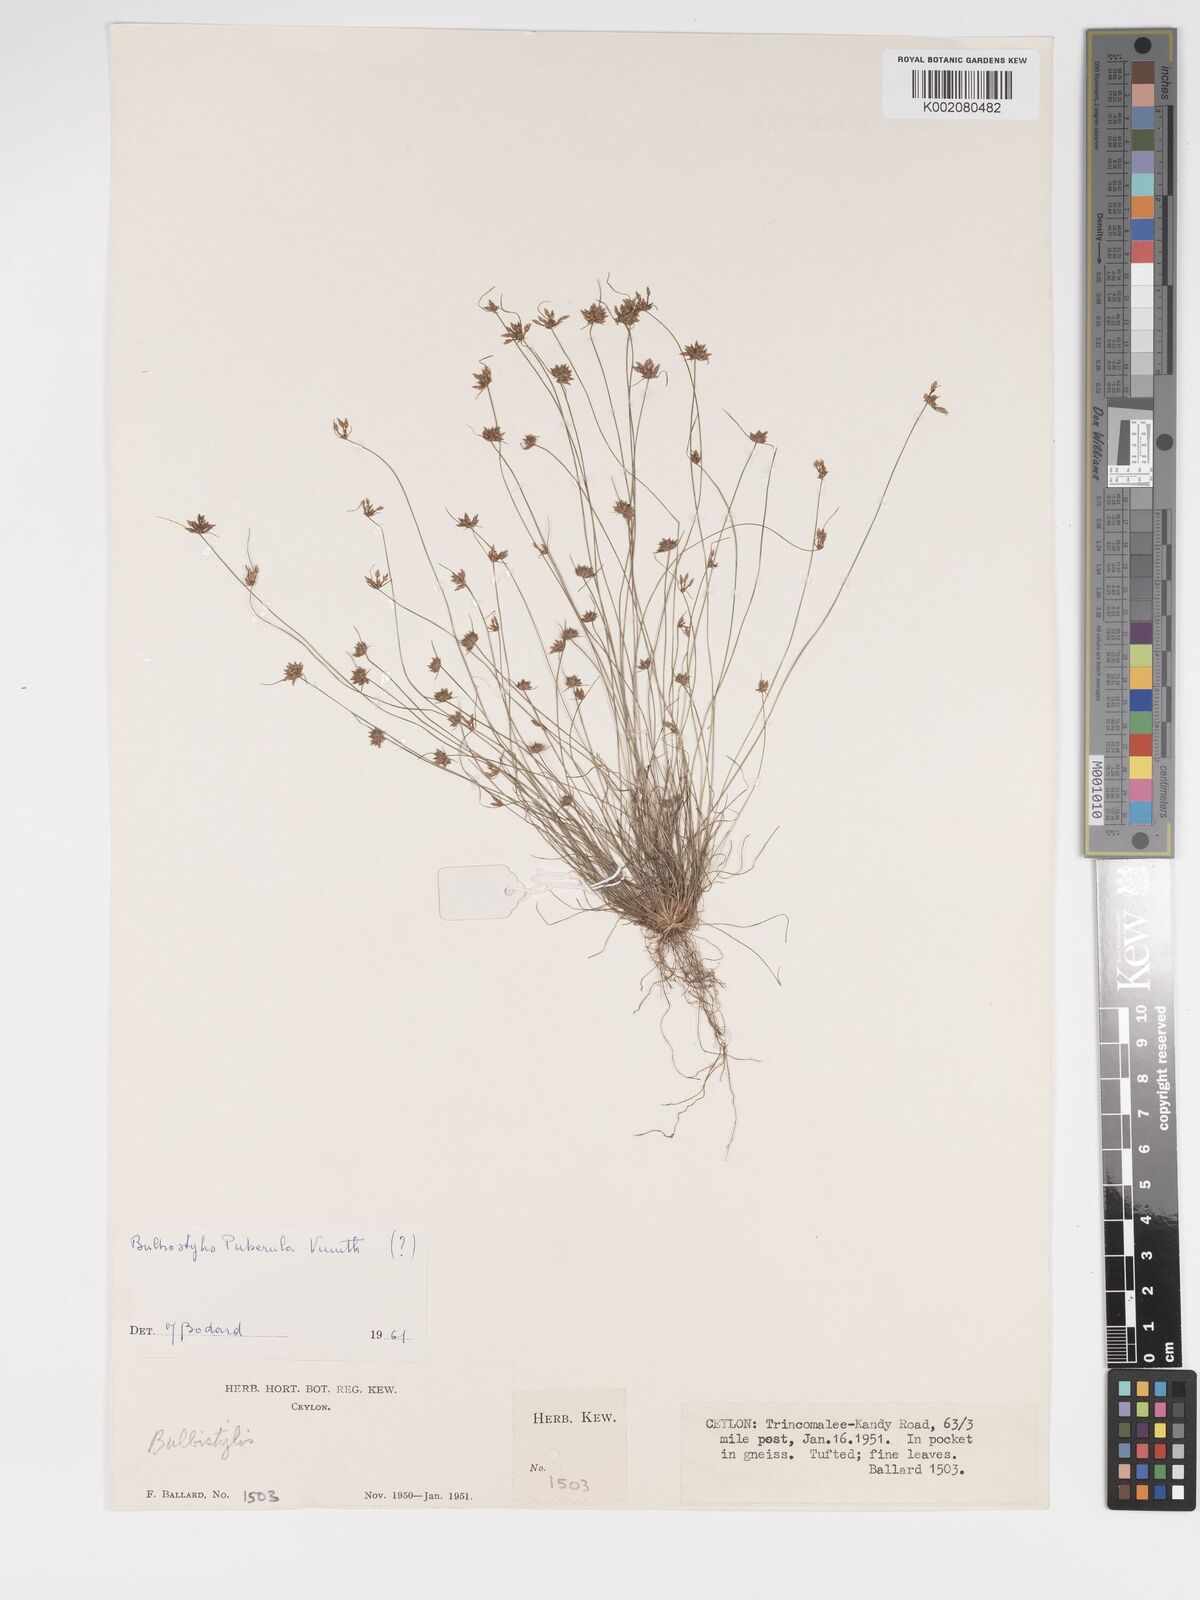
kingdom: Plantae
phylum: Tracheophyta
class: Liliopsida
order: Poales
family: Cyperaceae
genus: Bulbostylis
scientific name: Bulbostylis barbata
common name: Watergrass
